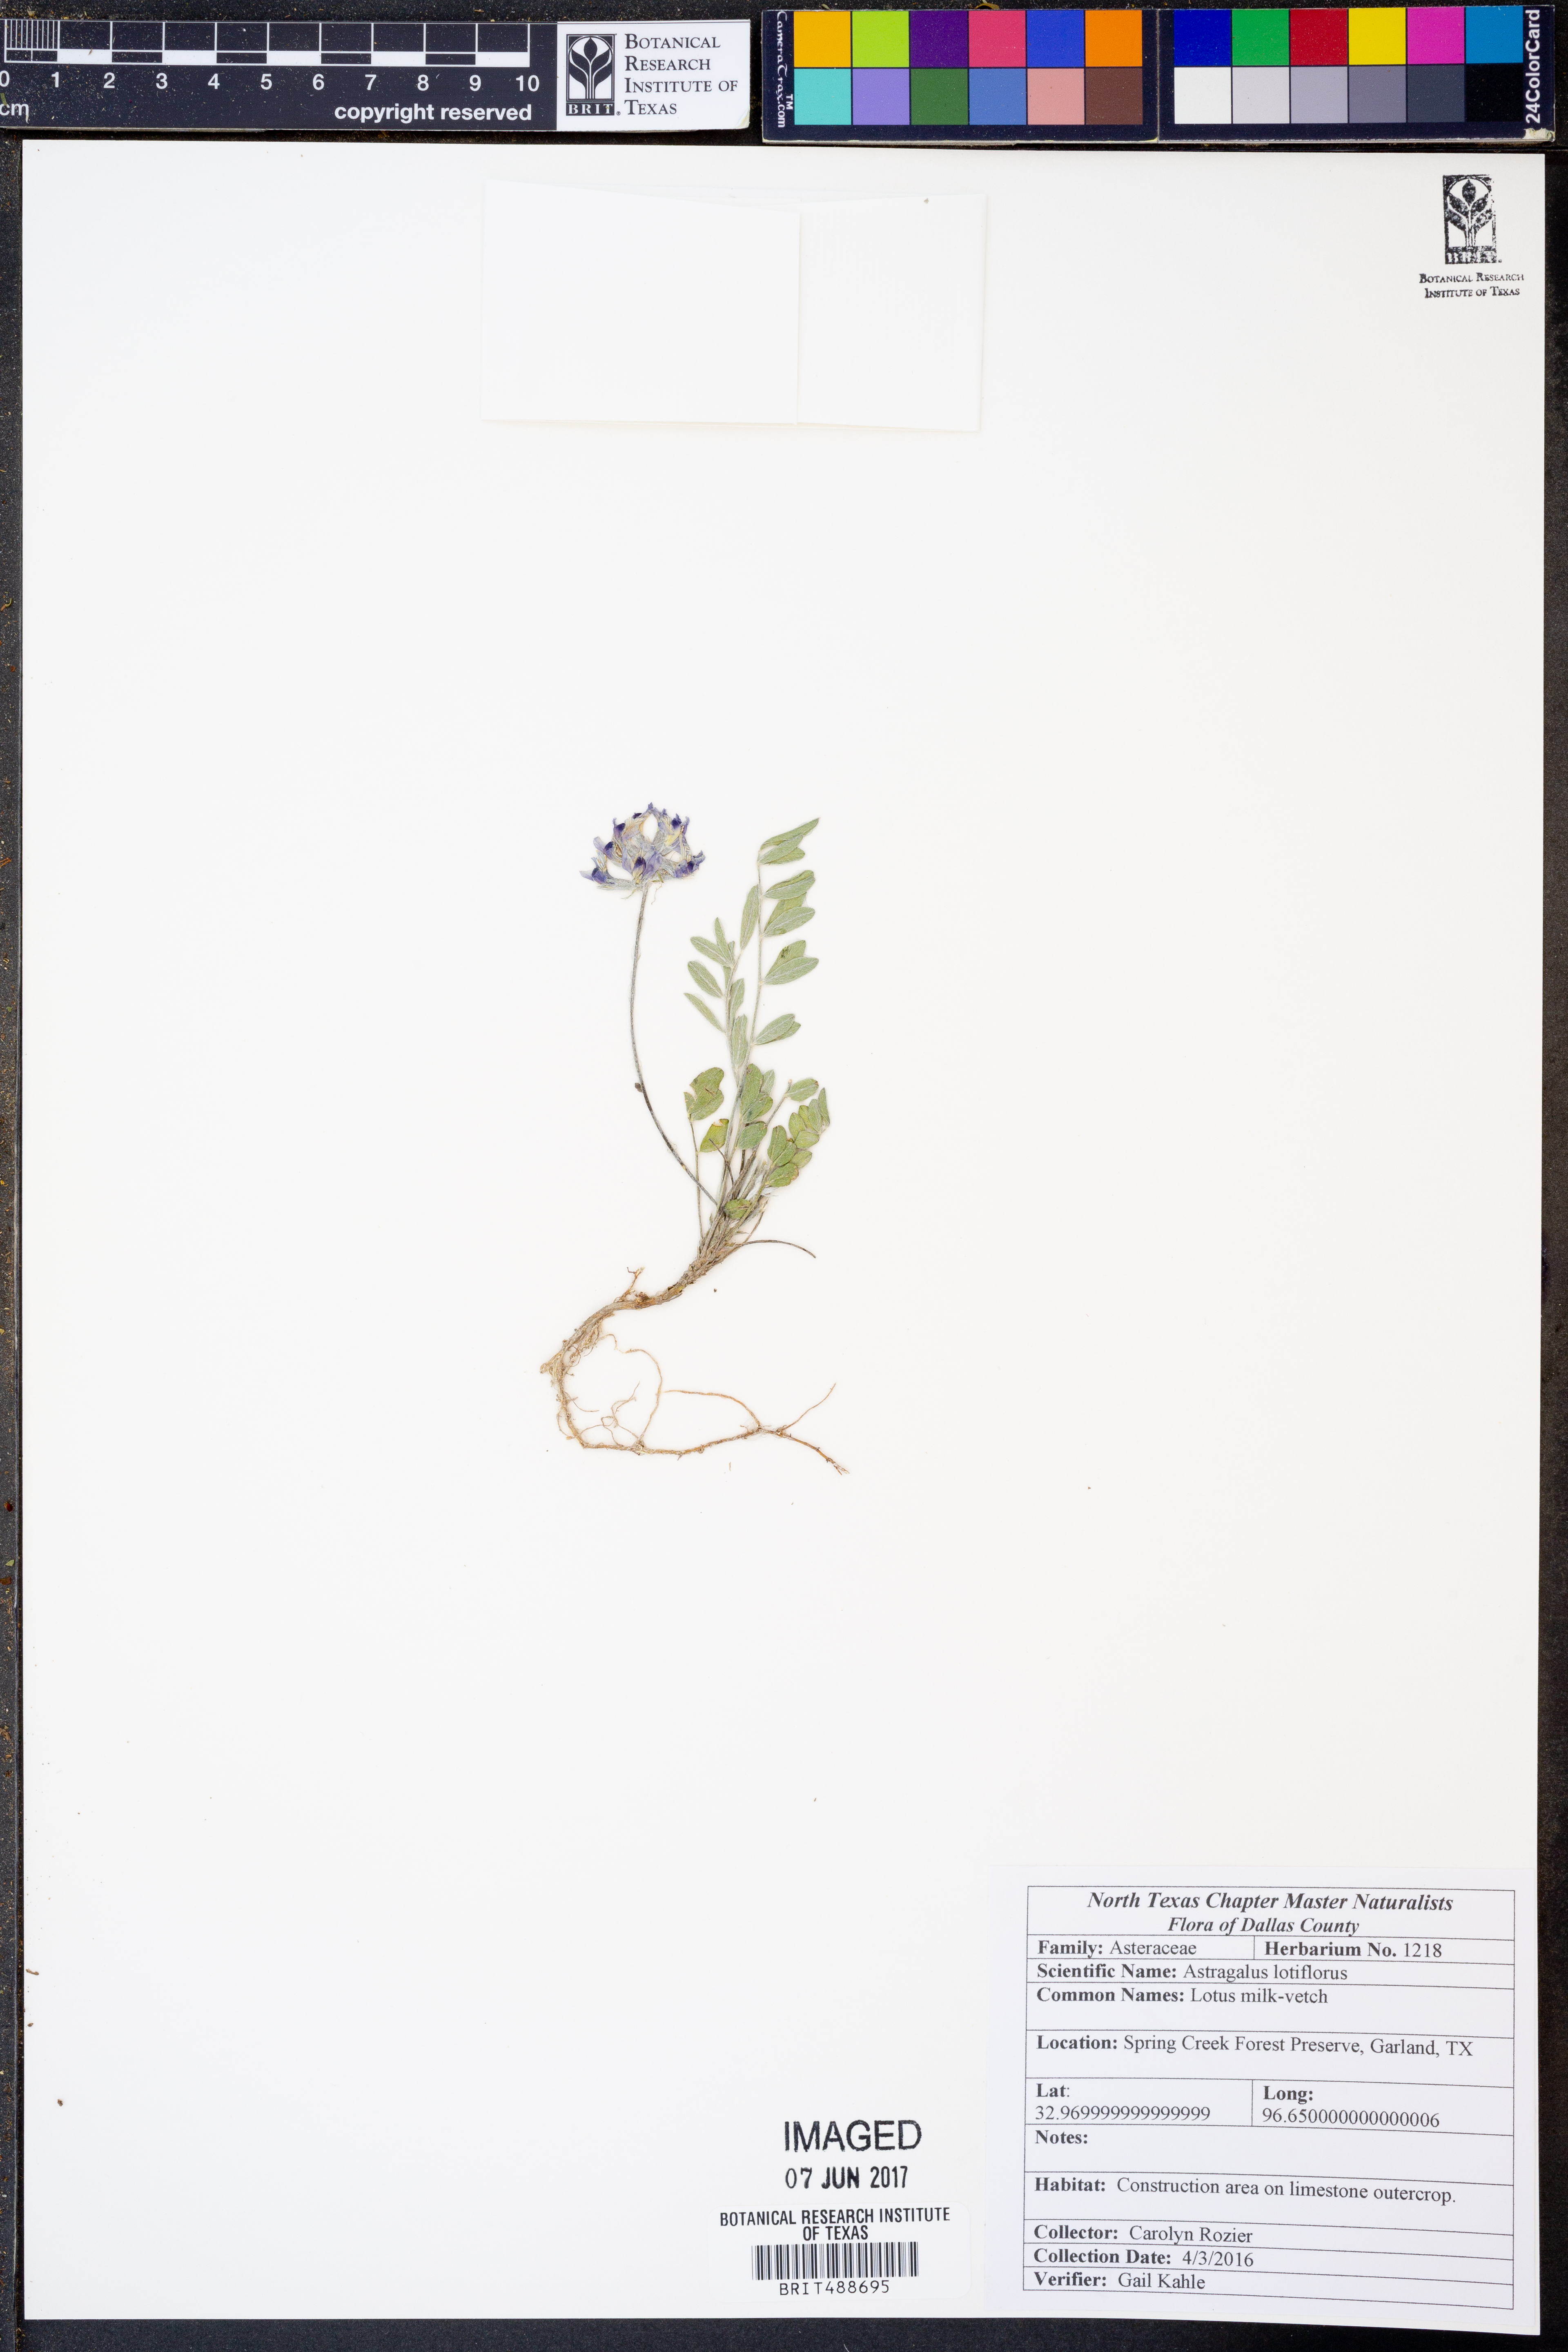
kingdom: Plantae
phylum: Tracheophyta
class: Magnoliopsida
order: Fabales
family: Fabaceae
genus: Astragalus
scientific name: Astragalus lotiflorus
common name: Lotus milk-vetch
